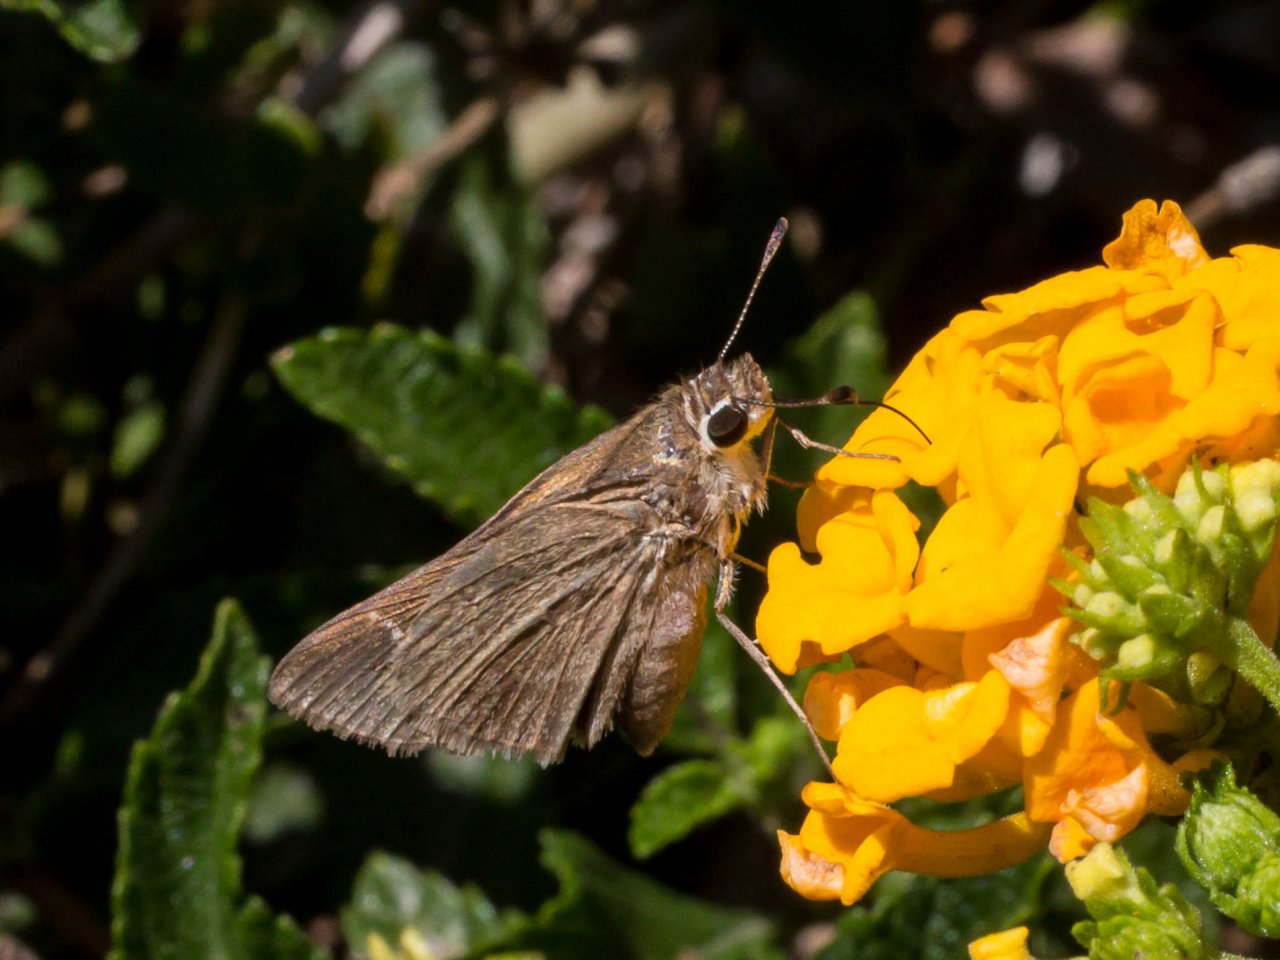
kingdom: Animalia
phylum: Arthropoda
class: Insecta
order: Lepidoptera
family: Hesperiidae
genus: Lerodea
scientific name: Lerodea eufala
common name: Eufala Skipper
